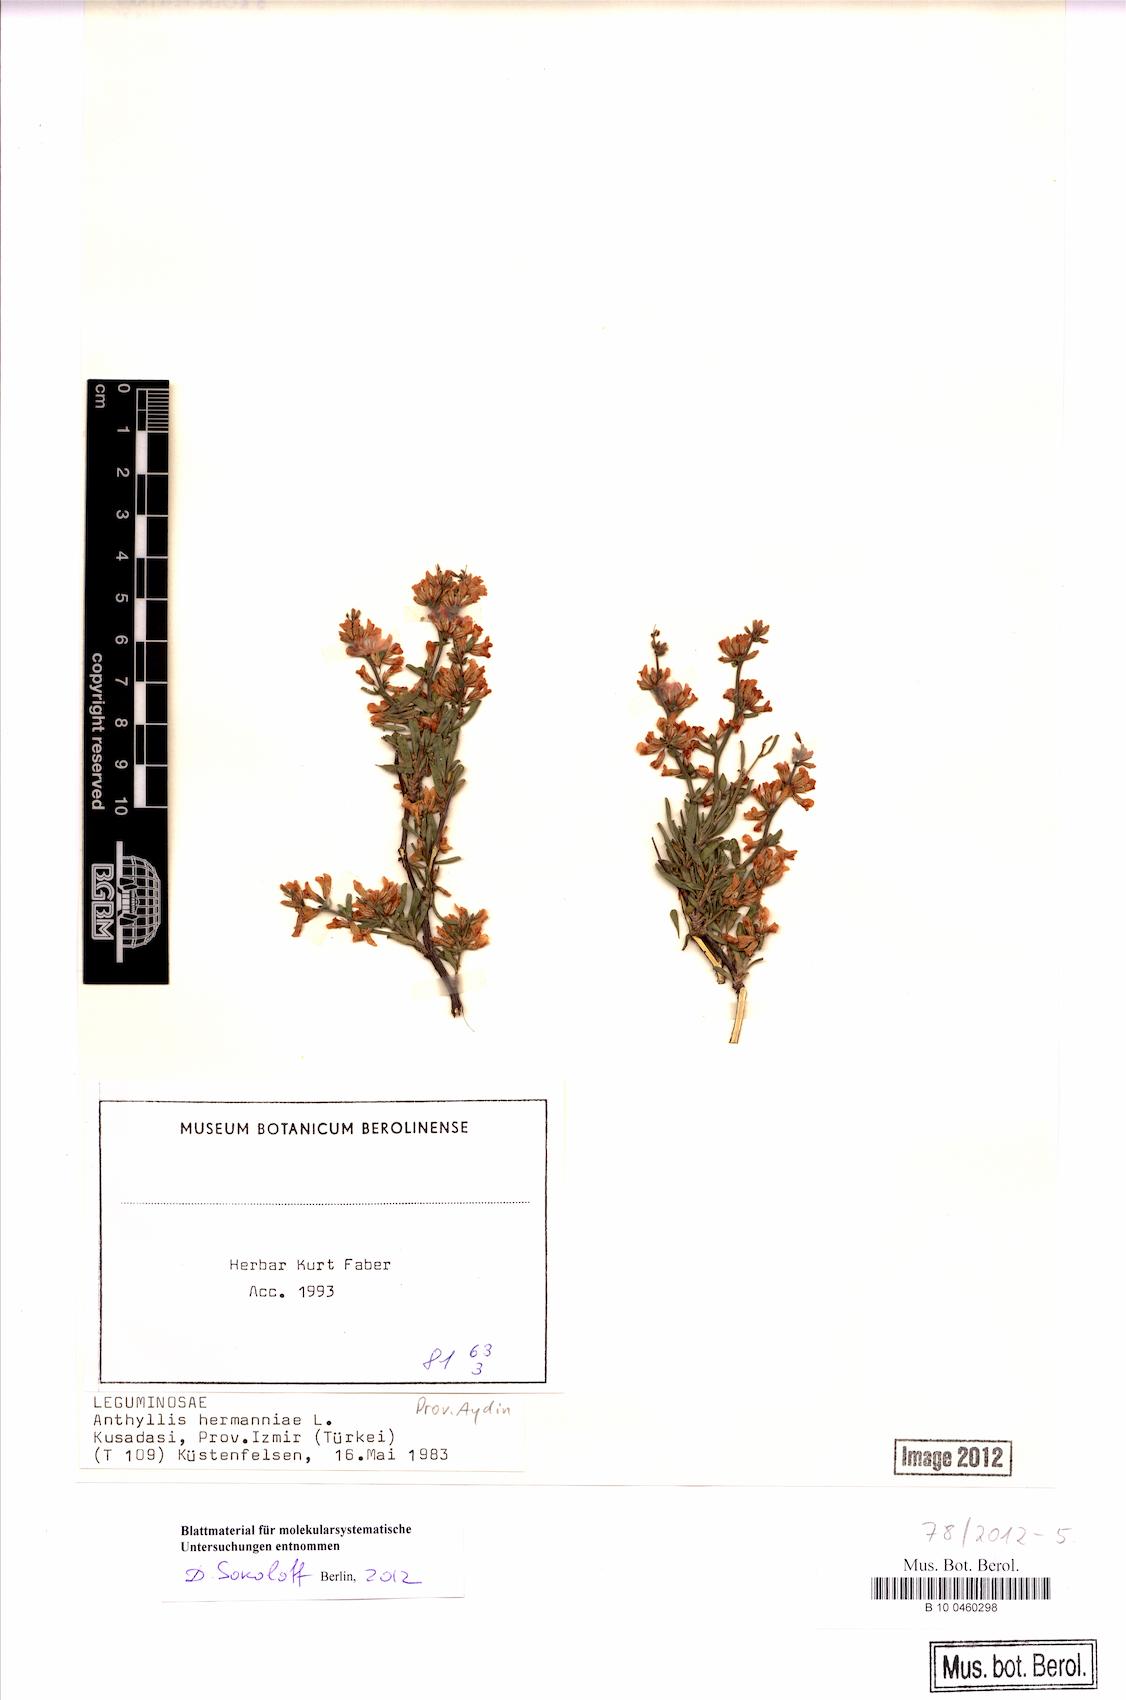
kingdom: Plantae
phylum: Tracheophyta
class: Magnoliopsida
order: Fabales
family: Fabaceae
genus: Anthyllis
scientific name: Anthyllis hermanniae
